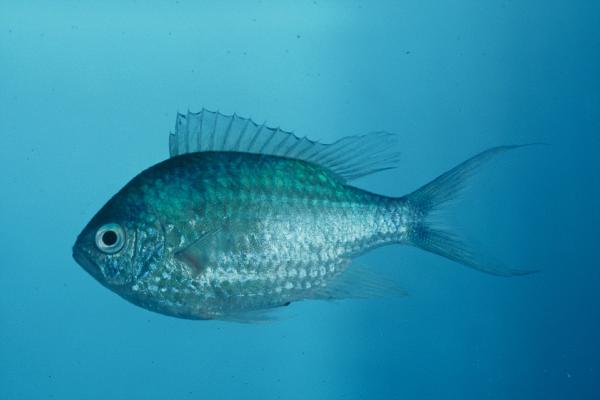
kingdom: Animalia
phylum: Chordata
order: Perciformes
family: Pomacentridae
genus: Chromis
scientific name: Chromis viridis
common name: Blue-green chromis
